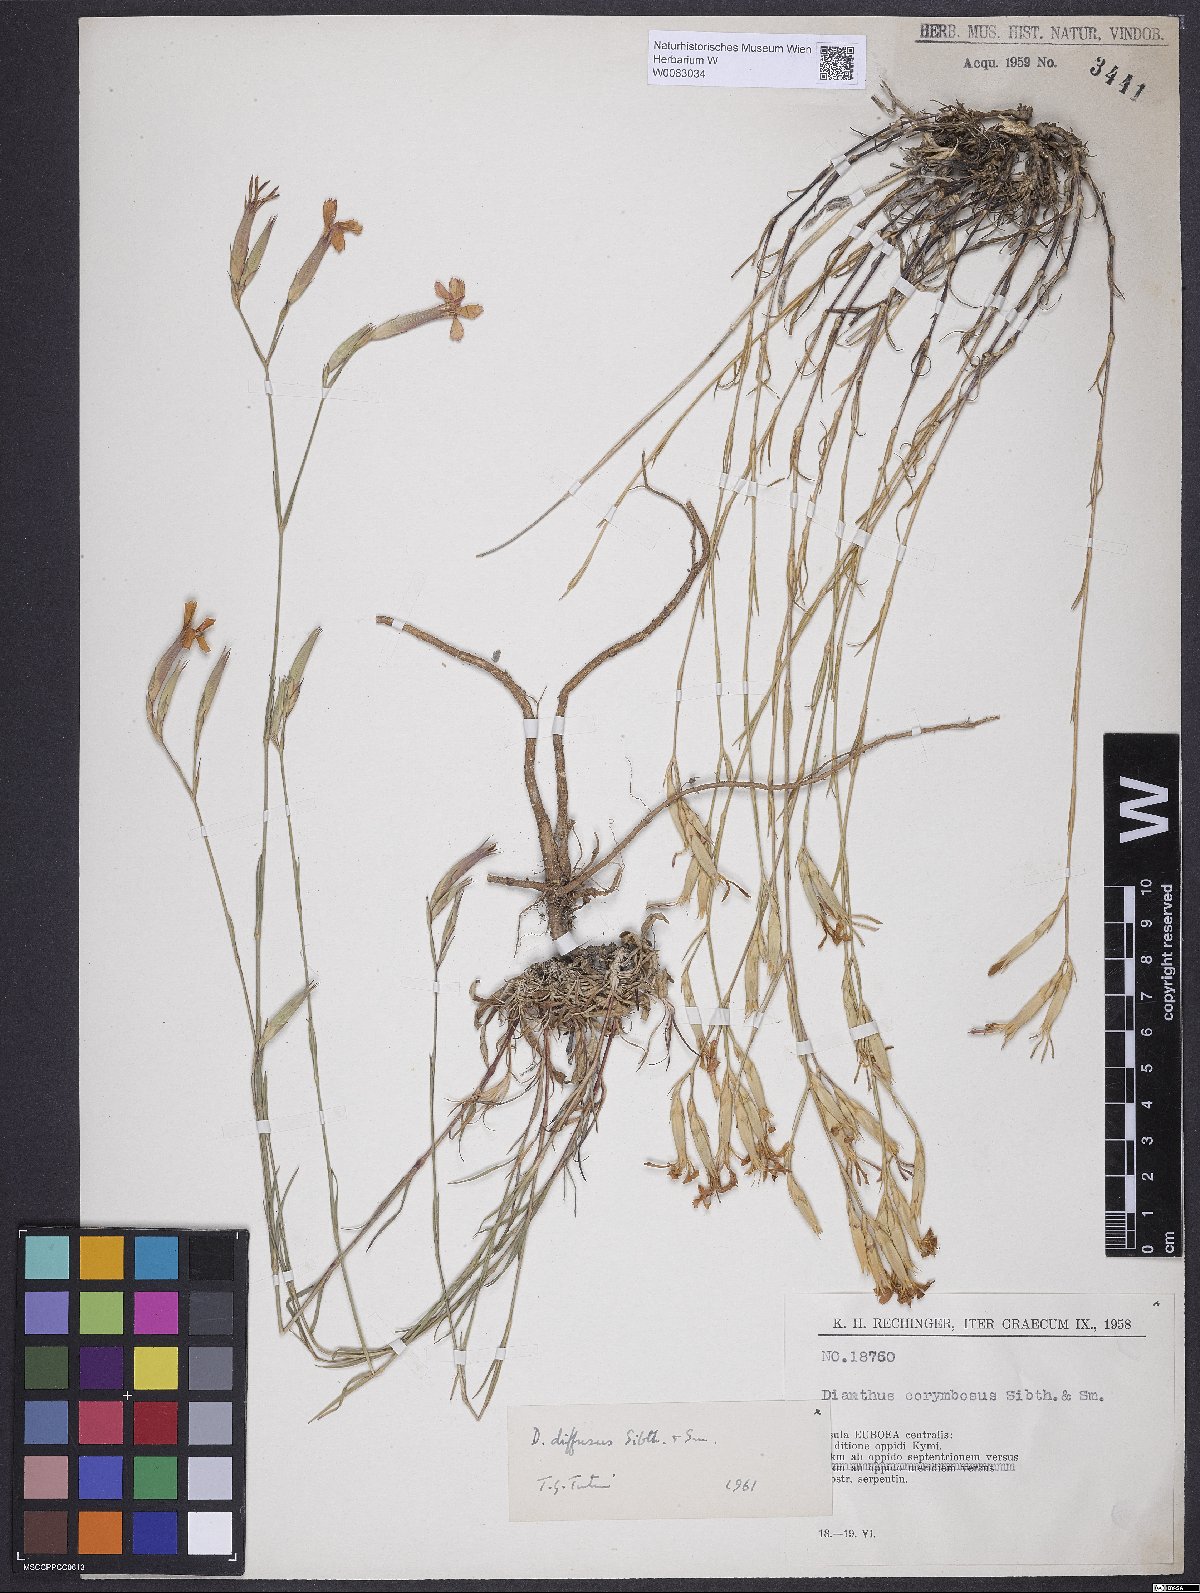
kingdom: Plantae
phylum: Tracheophyta
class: Magnoliopsida
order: Caryophyllales
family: Caryophyllaceae
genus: Dianthus
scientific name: Dianthus diffusus
